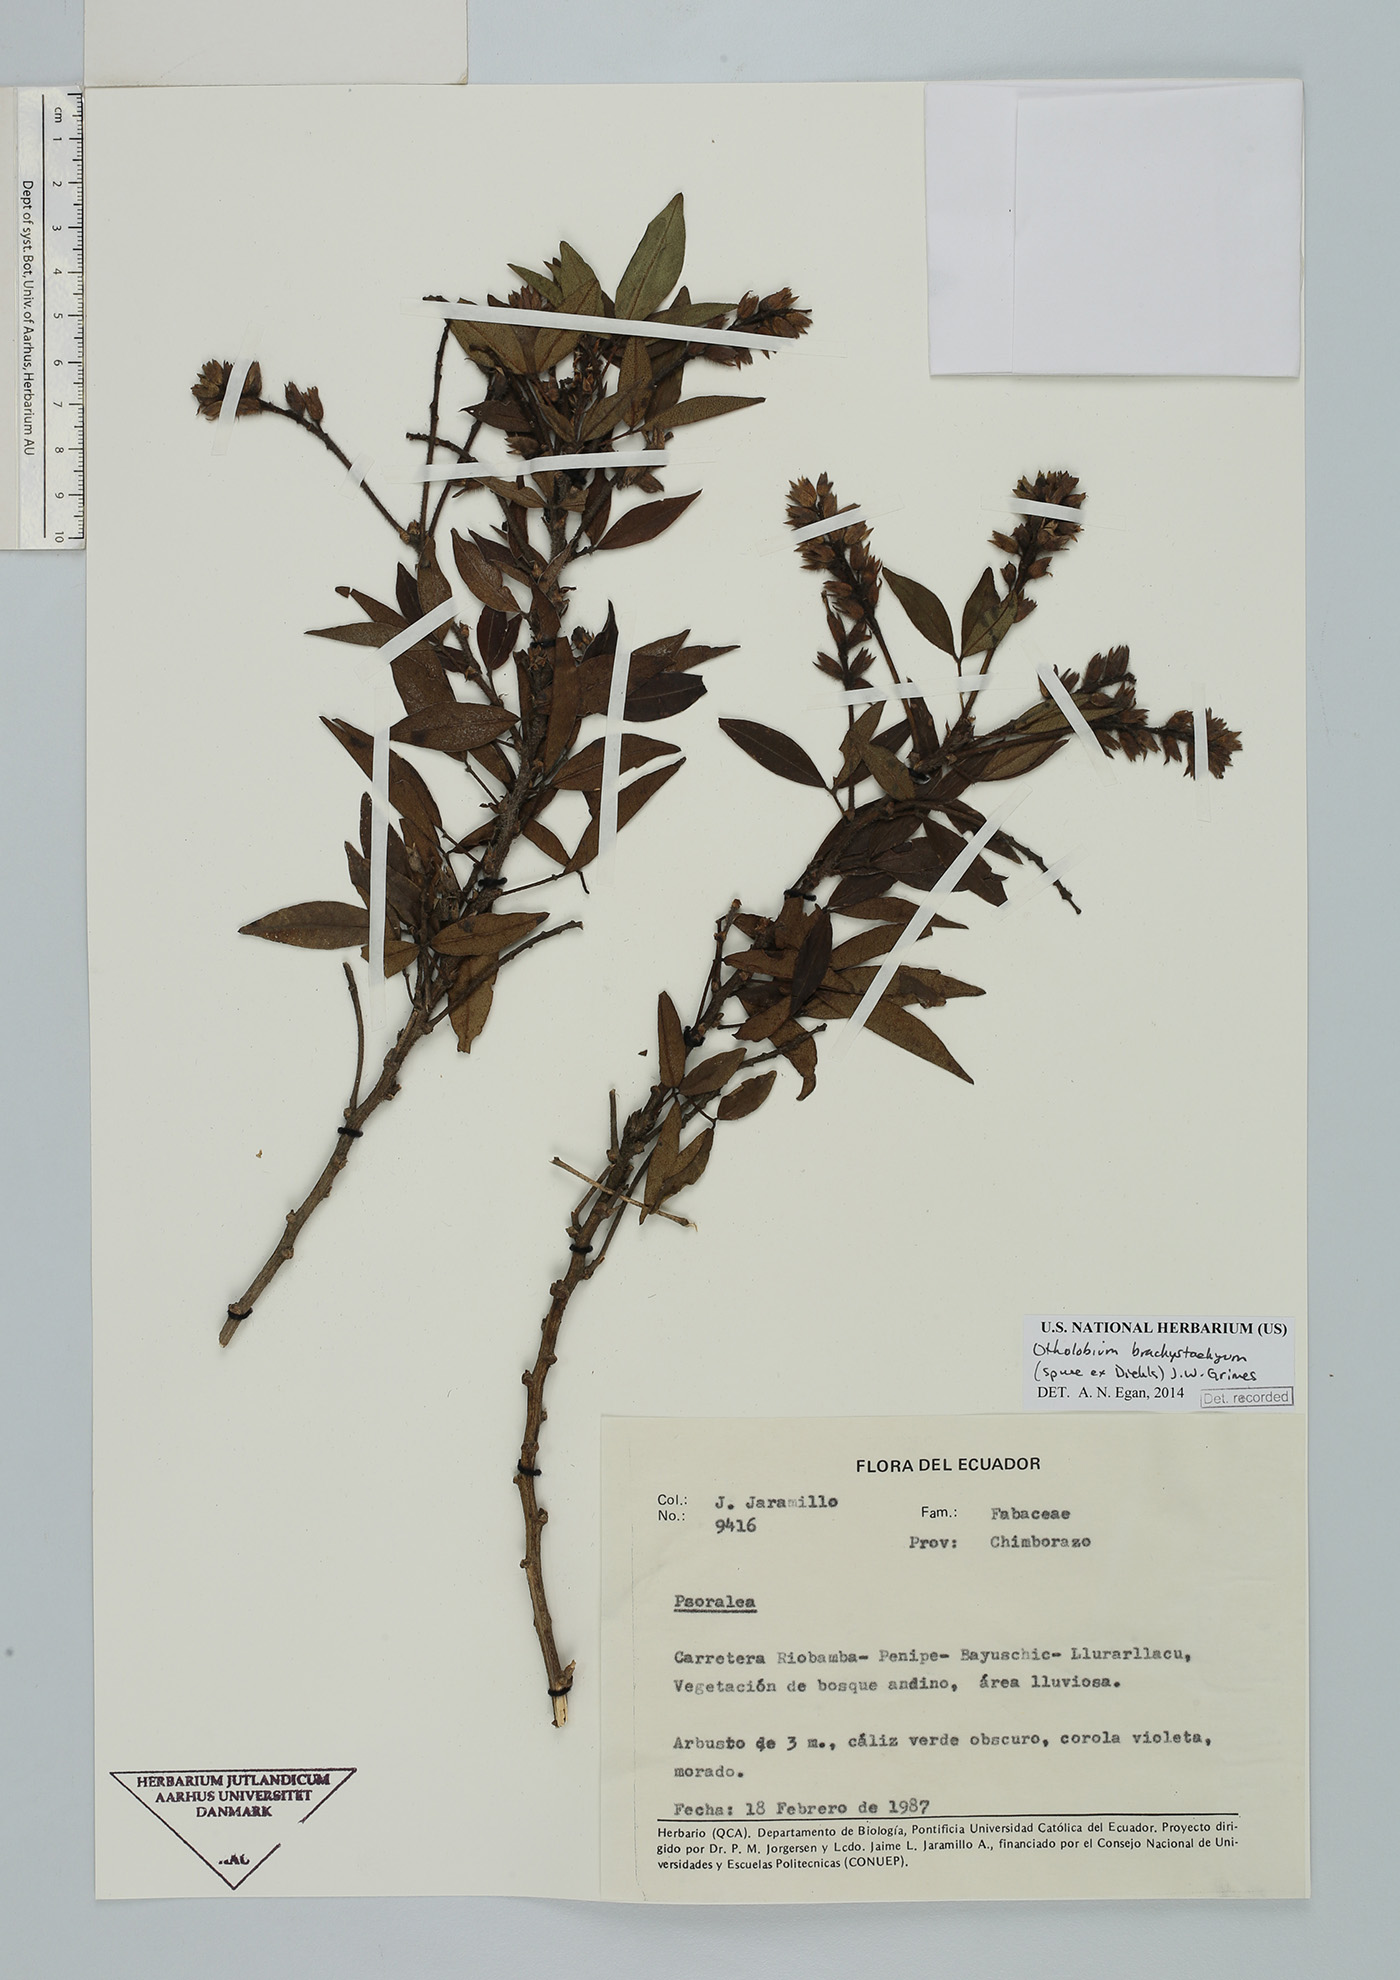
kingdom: Plantae
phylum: Tracheophyta
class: Magnoliopsida
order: Fabales
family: Fabaceae
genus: Psoralea
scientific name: Psoralea Otholobium brachystachyum
